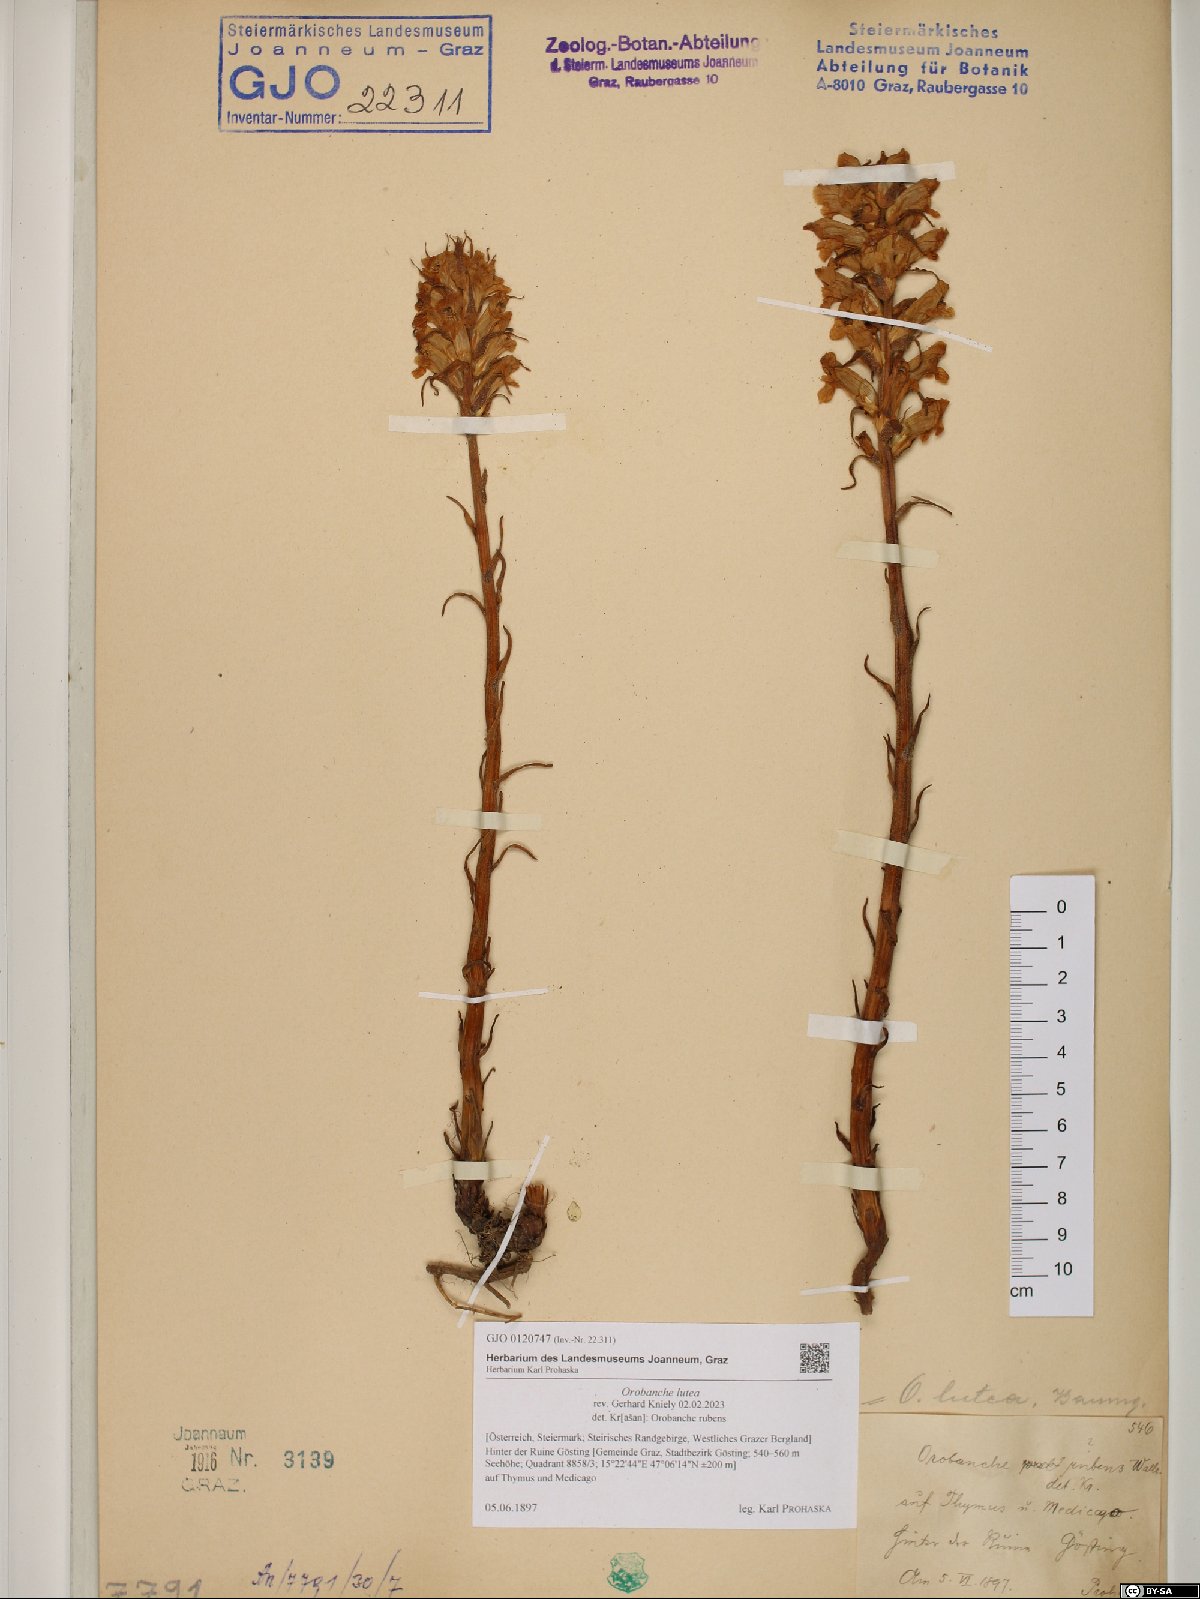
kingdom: Plantae
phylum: Tracheophyta
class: Magnoliopsida
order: Lamiales
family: Orobanchaceae
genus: Orobanche
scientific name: Orobanche lutea
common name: Yellow broomrape
